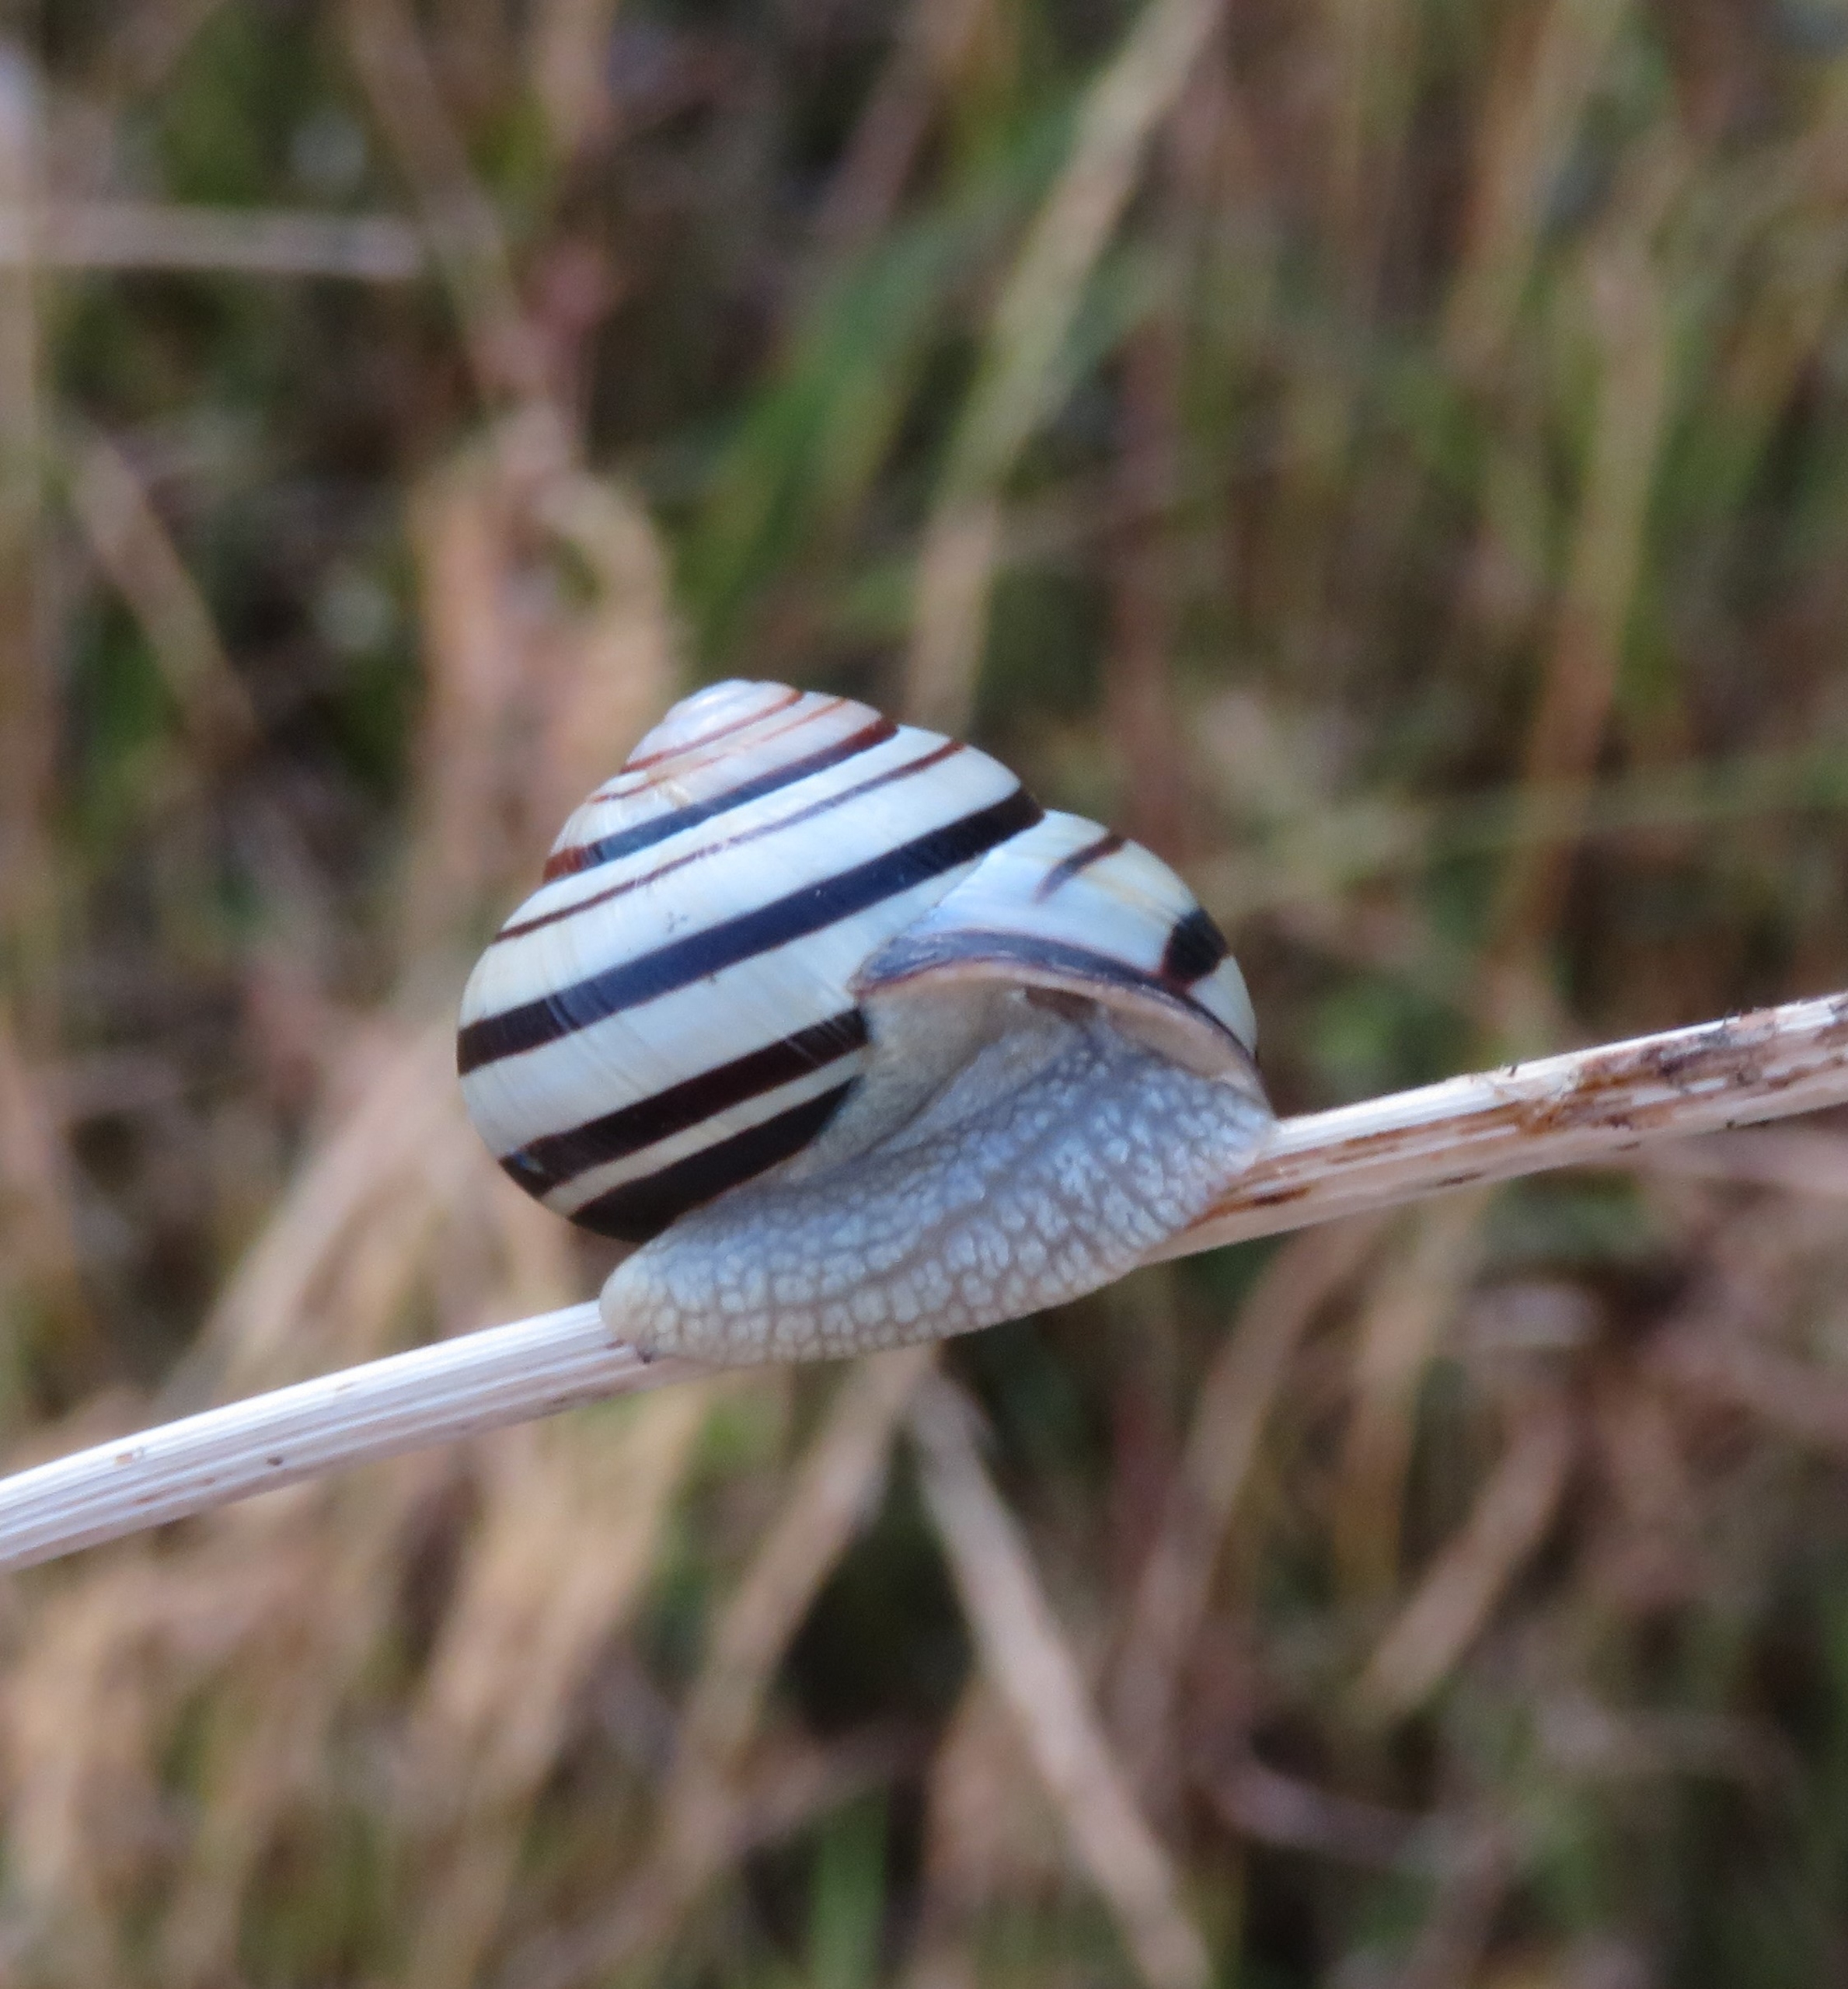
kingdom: Animalia
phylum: Mollusca
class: Gastropoda
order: Stylommatophora
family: Helicidae
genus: Cepaea
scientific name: Cepaea nemoralis
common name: Lundsnegl
